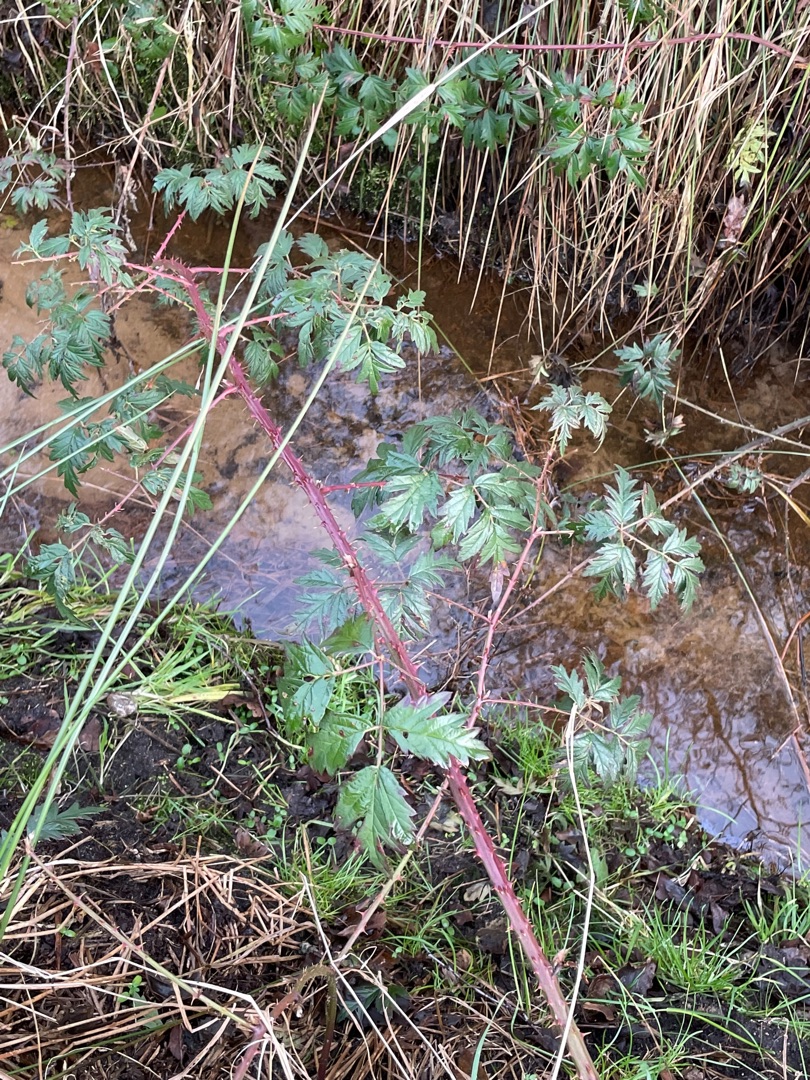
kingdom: Plantae
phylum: Tracheophyta
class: Magnoliopsida
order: Rosales
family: Rosaceae
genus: Rubus
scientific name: Rubus laciniatus
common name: Fliget brombær
